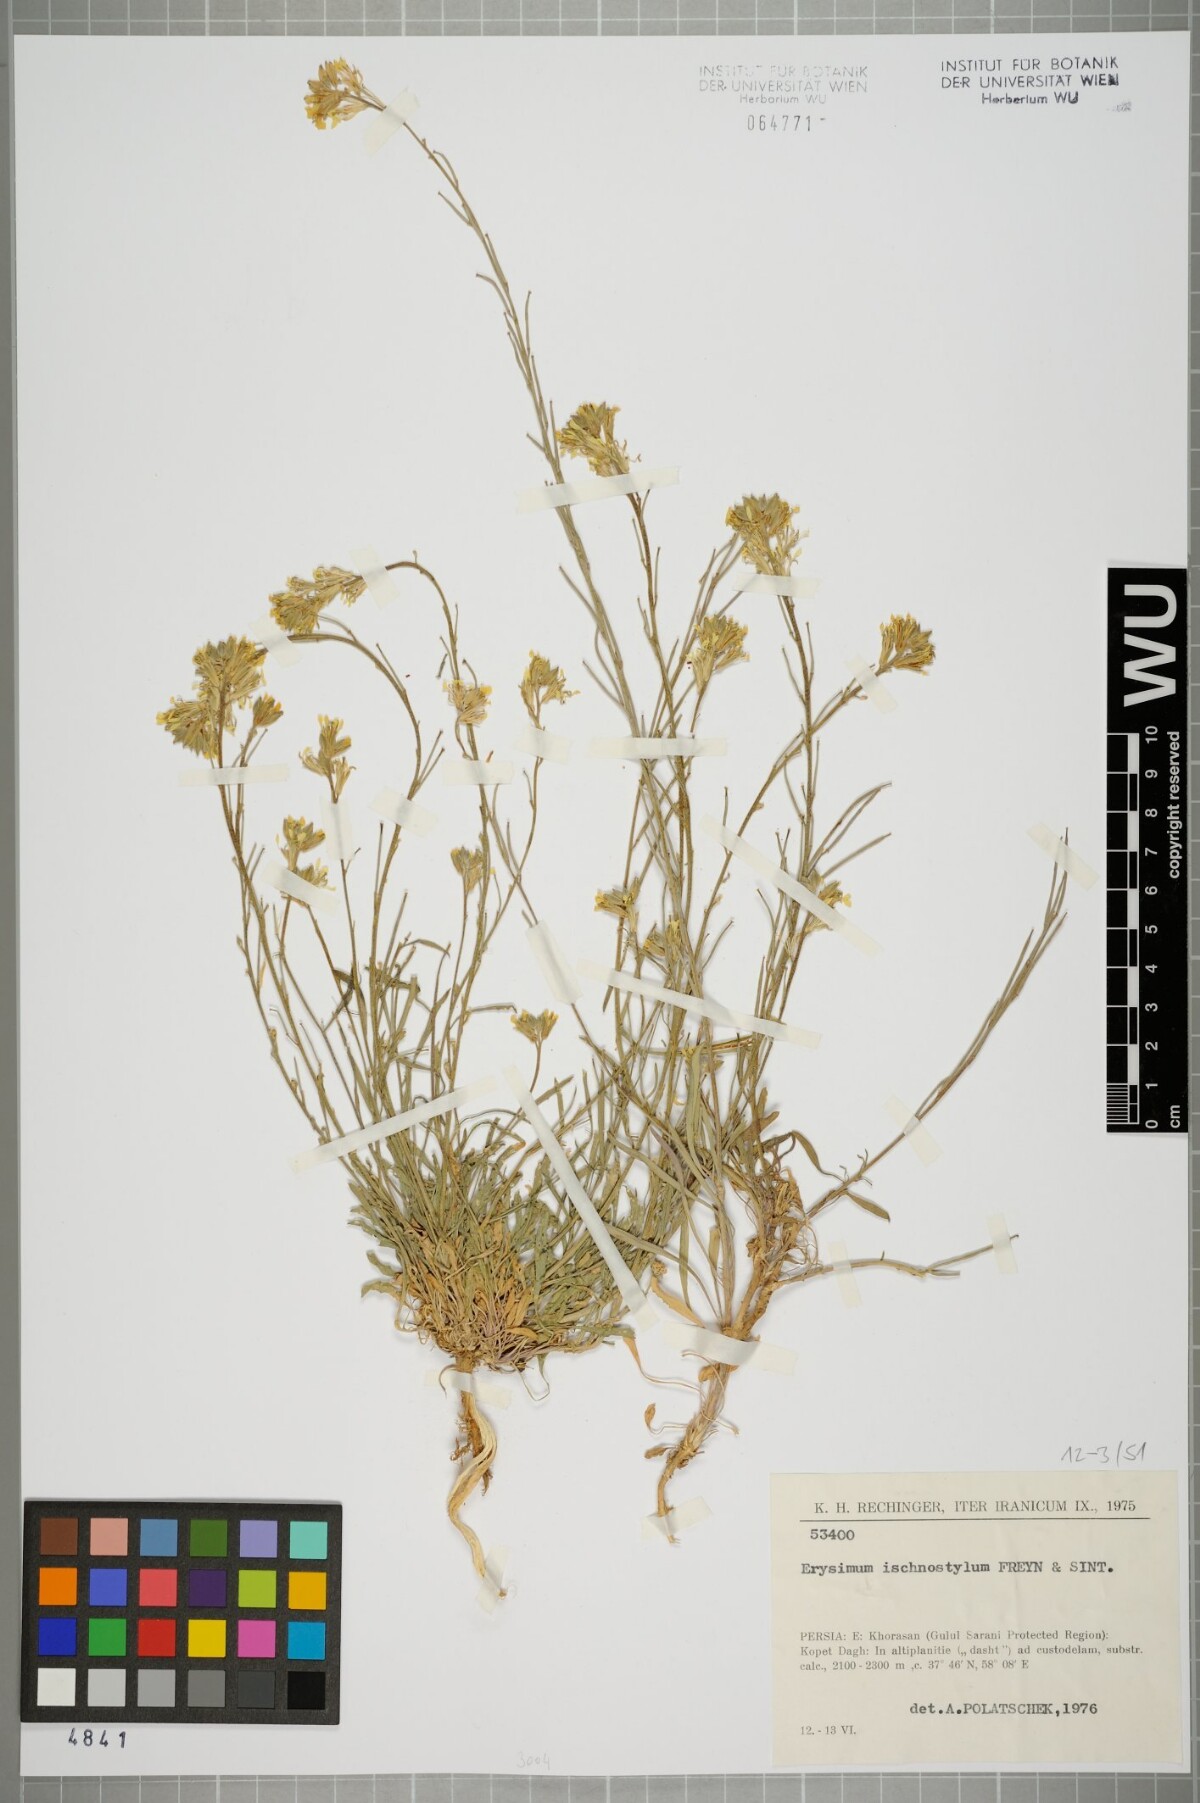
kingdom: Plantae
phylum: Tracheophyta
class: Magnoliopsida
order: Brassicales
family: Brassicaceae
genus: Erysimum
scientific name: Erysimum ischnostylum
